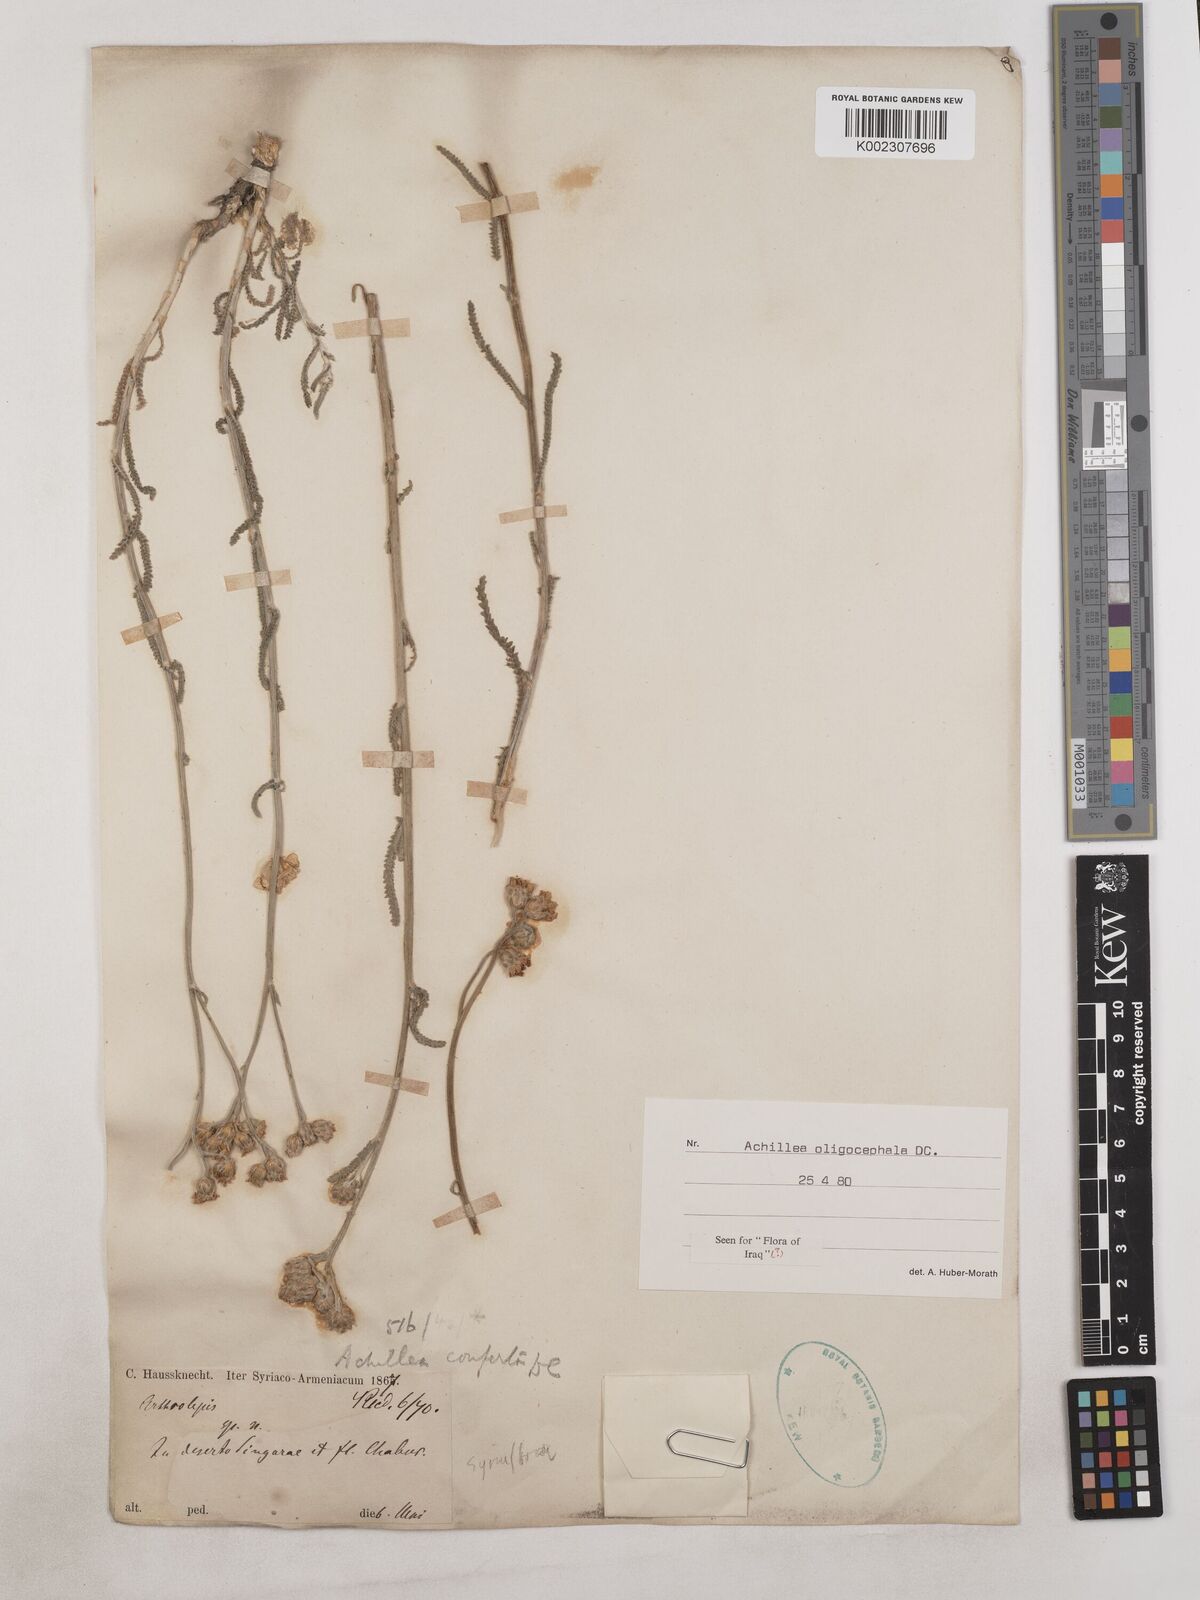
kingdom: Plantae
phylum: Tracheophyta
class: Magnoliopsida
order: Asterales
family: Asteraceae
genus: Achillea
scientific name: Achillea oligocephala
